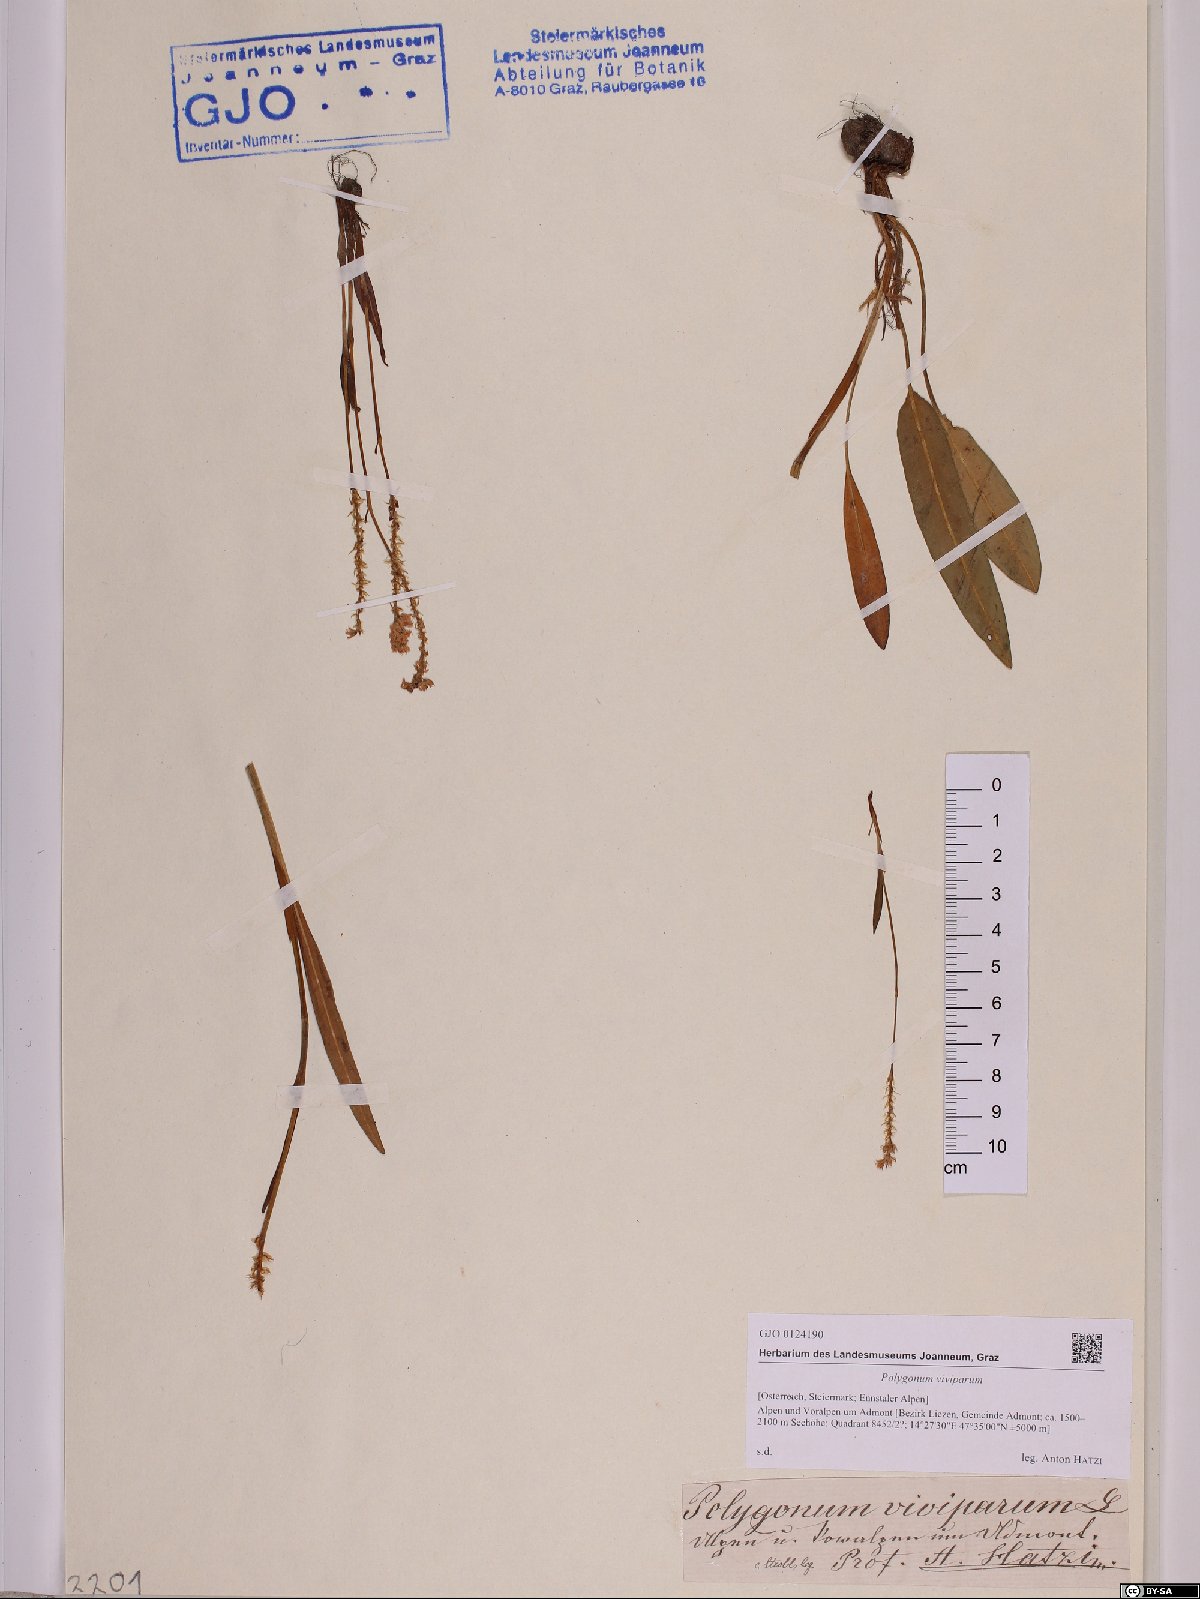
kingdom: Plantae
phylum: Tracheophyta
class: Magnoliopsida
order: Caryophyllales
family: Polygonaceae
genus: Bistorta
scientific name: Bistorta vivipara
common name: Alpine bistort
